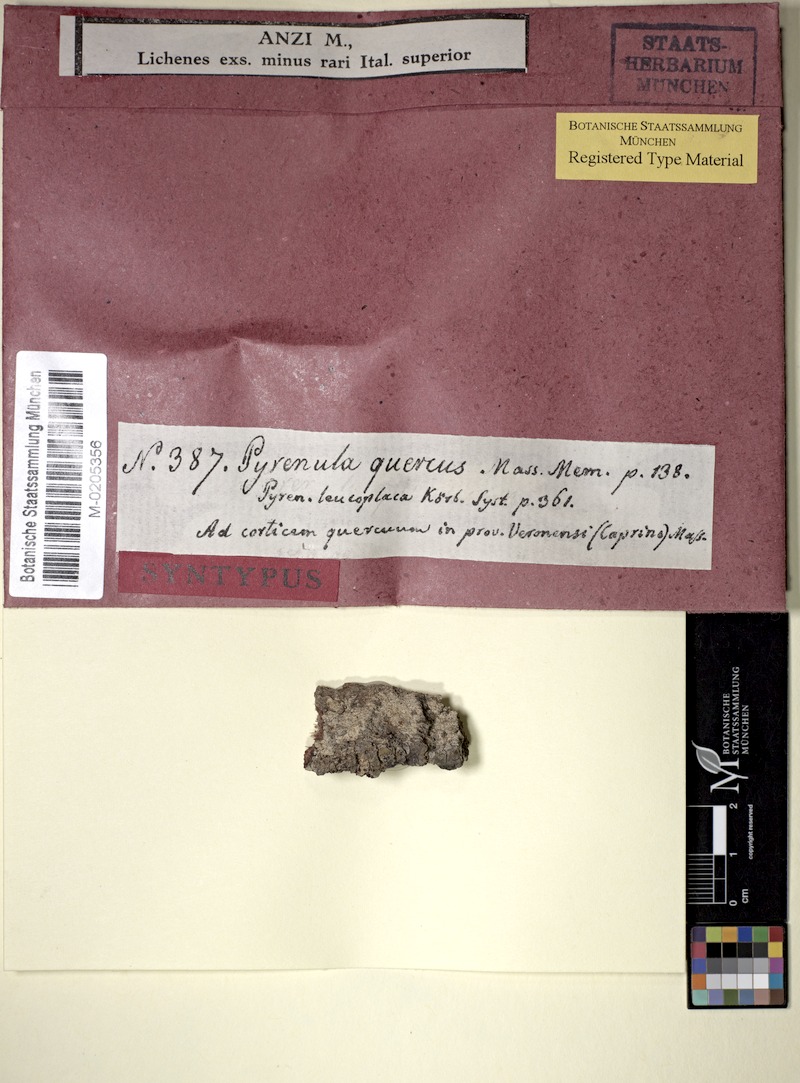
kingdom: Fungi
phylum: Ascomycota
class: Dothideomycetes
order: Pleosporales
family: Dacampiaceae
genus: Eopyrenula
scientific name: Eopyrenula leucoplaca
